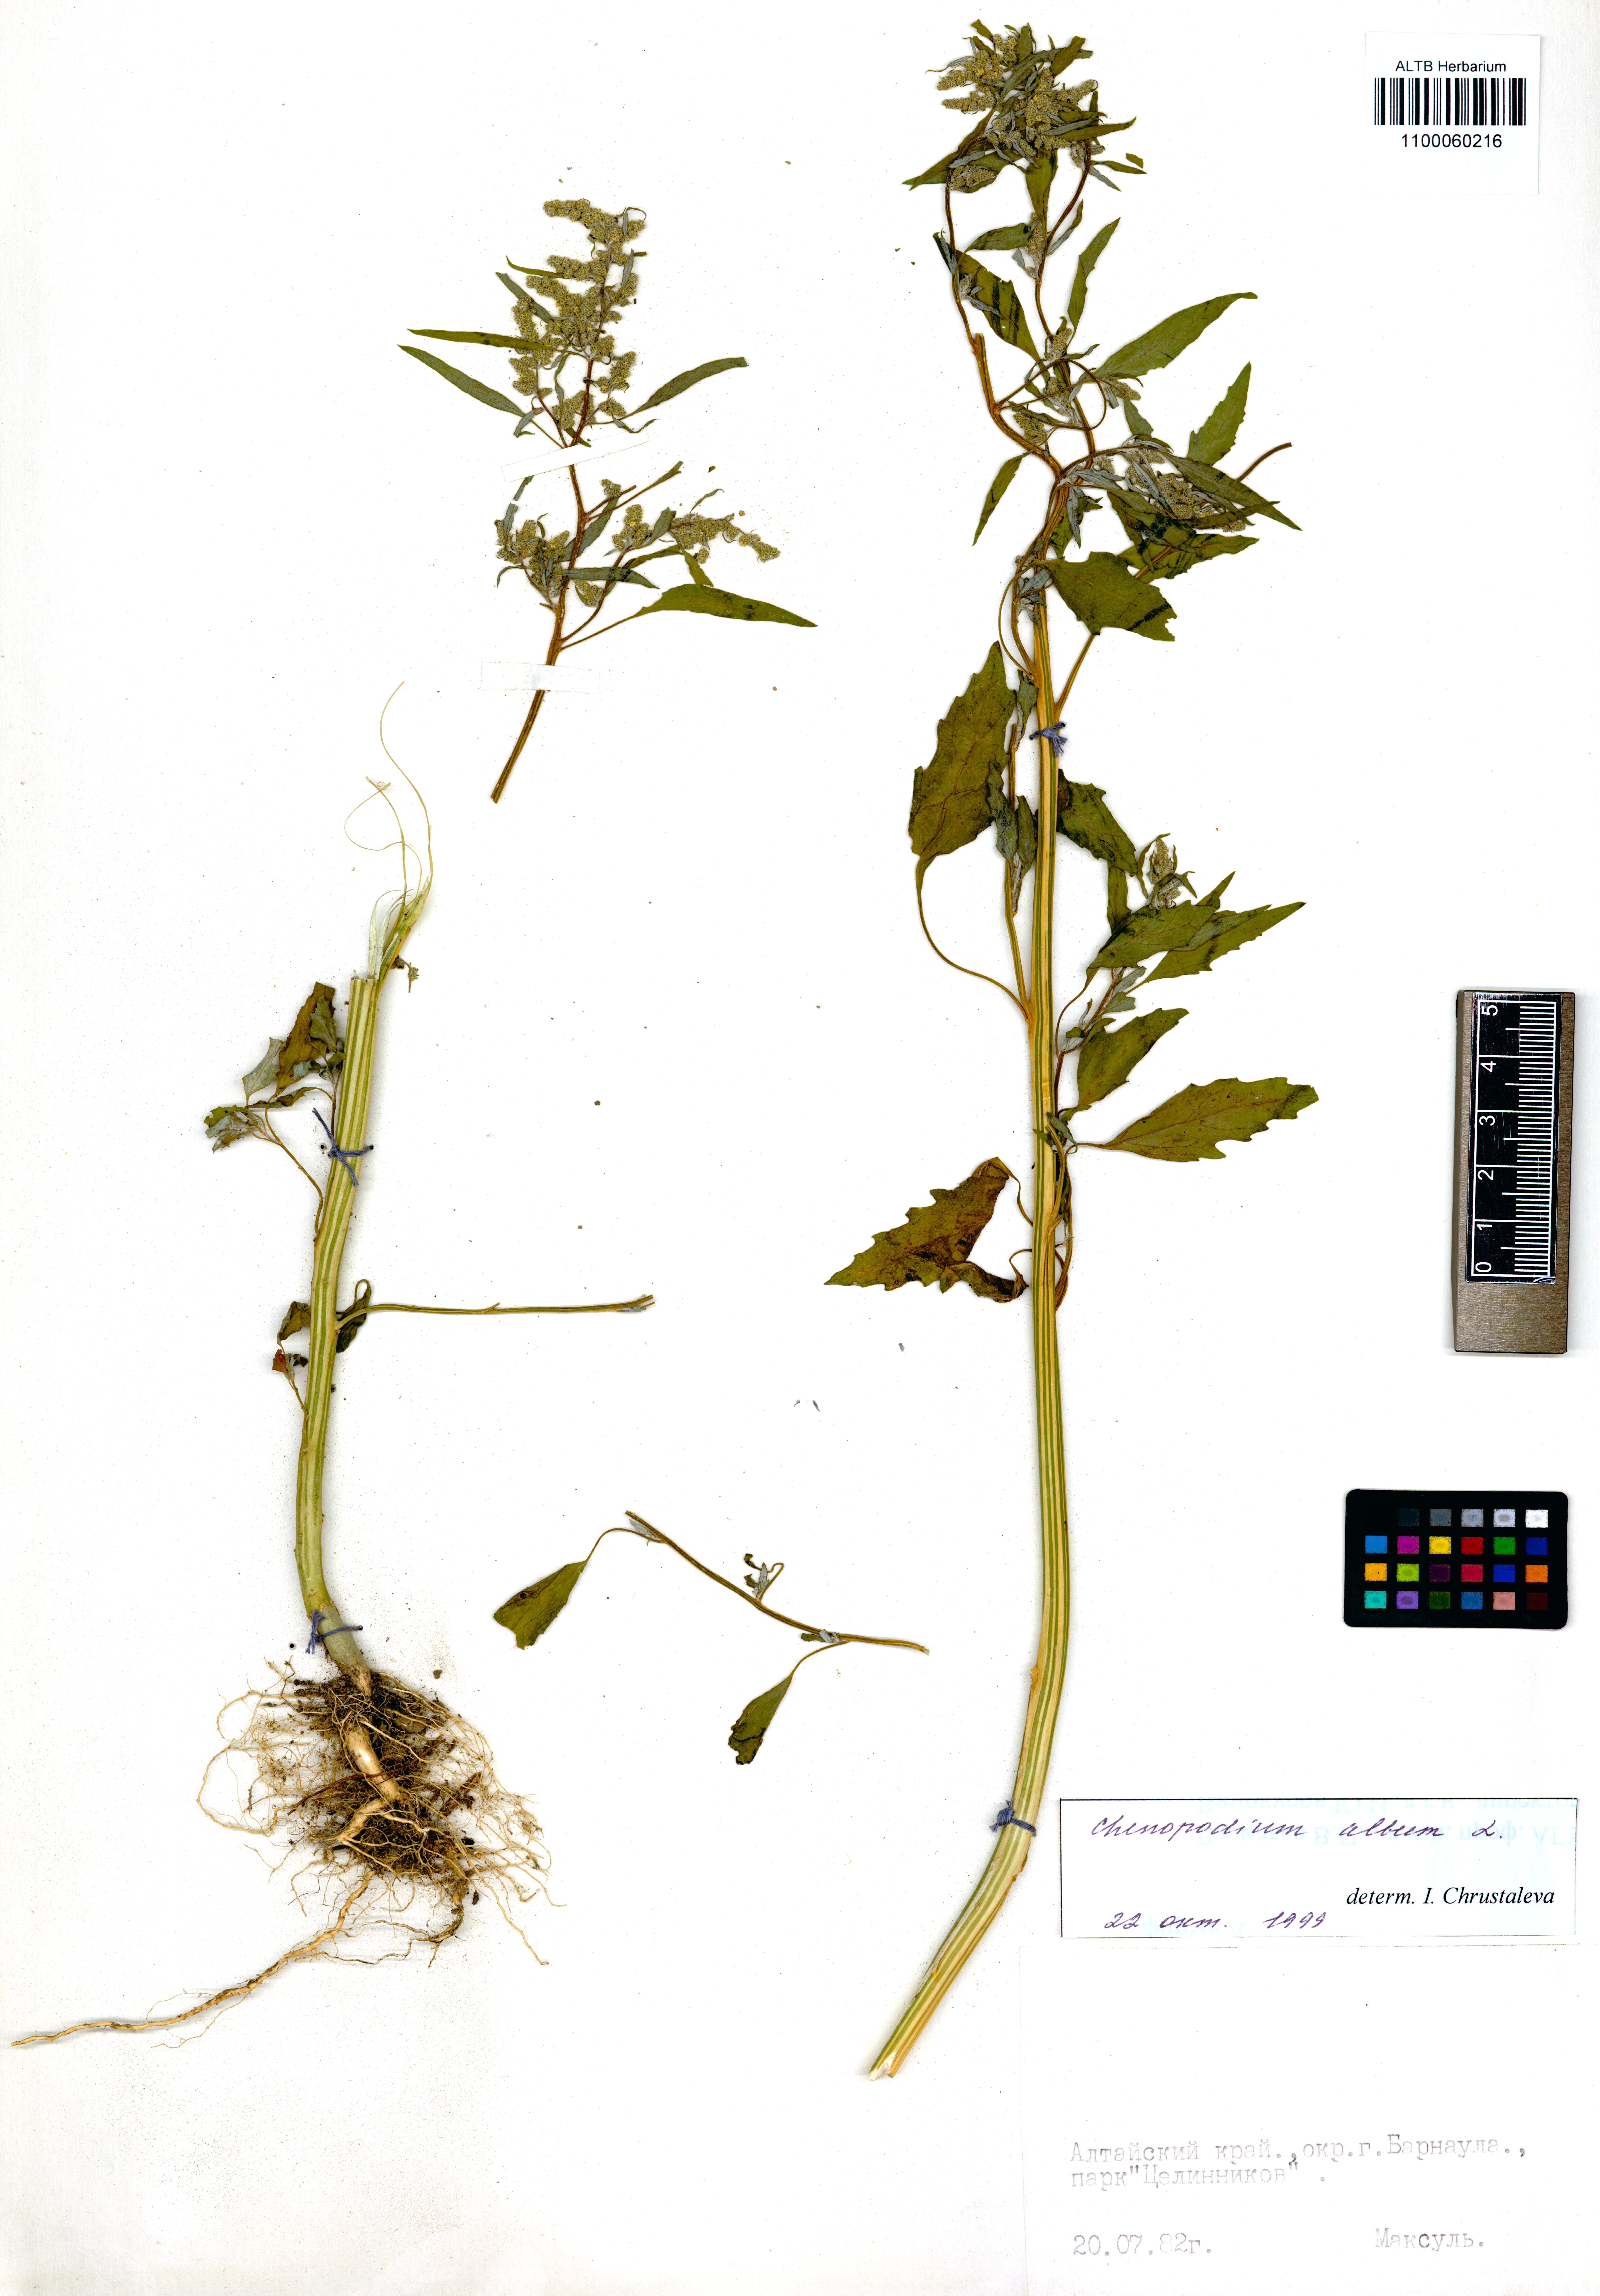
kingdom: Plantae
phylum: Tracheophyta
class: Magnoliopsida
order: Caryophyllales
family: Amaranthaceae
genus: Chenopodium
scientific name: Chenopodium album
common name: Fat-hen
